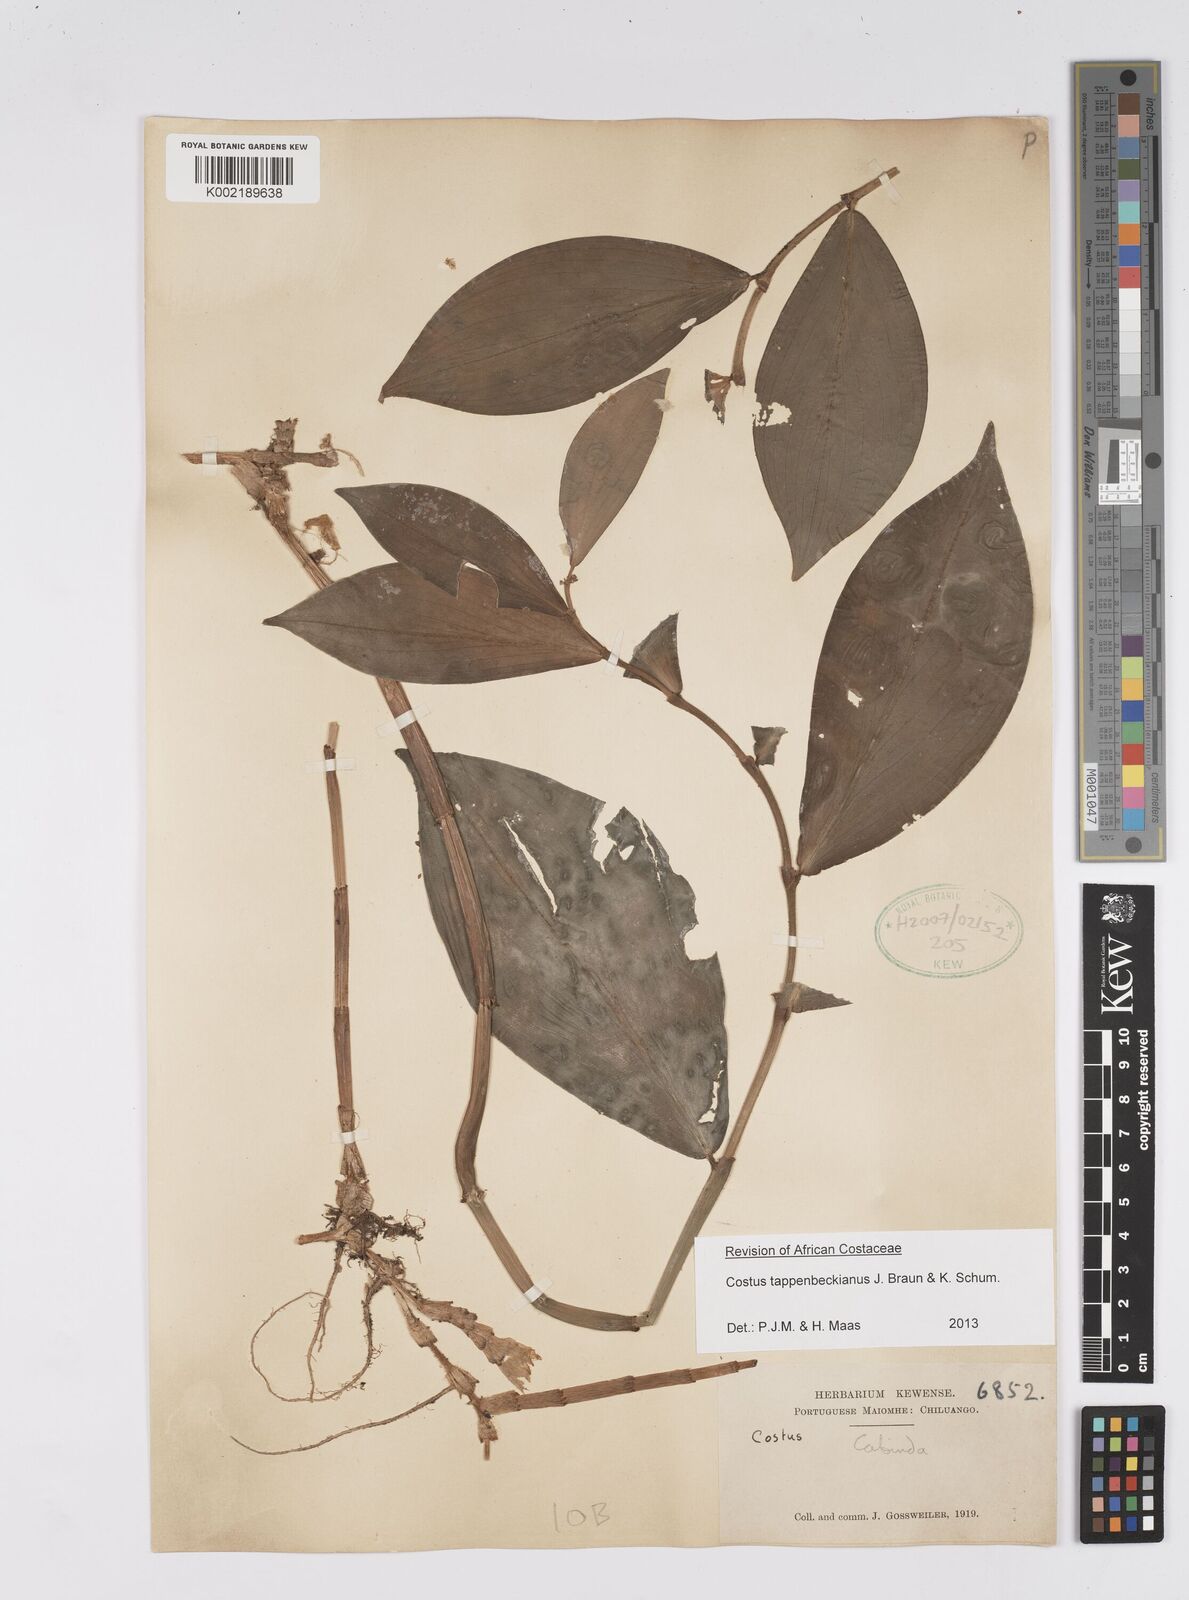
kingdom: Plantae
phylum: Tracheophyta
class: Liliopsida
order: Zingiberales
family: Costaceae
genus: Costus
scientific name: Costus tappenbeckianus
